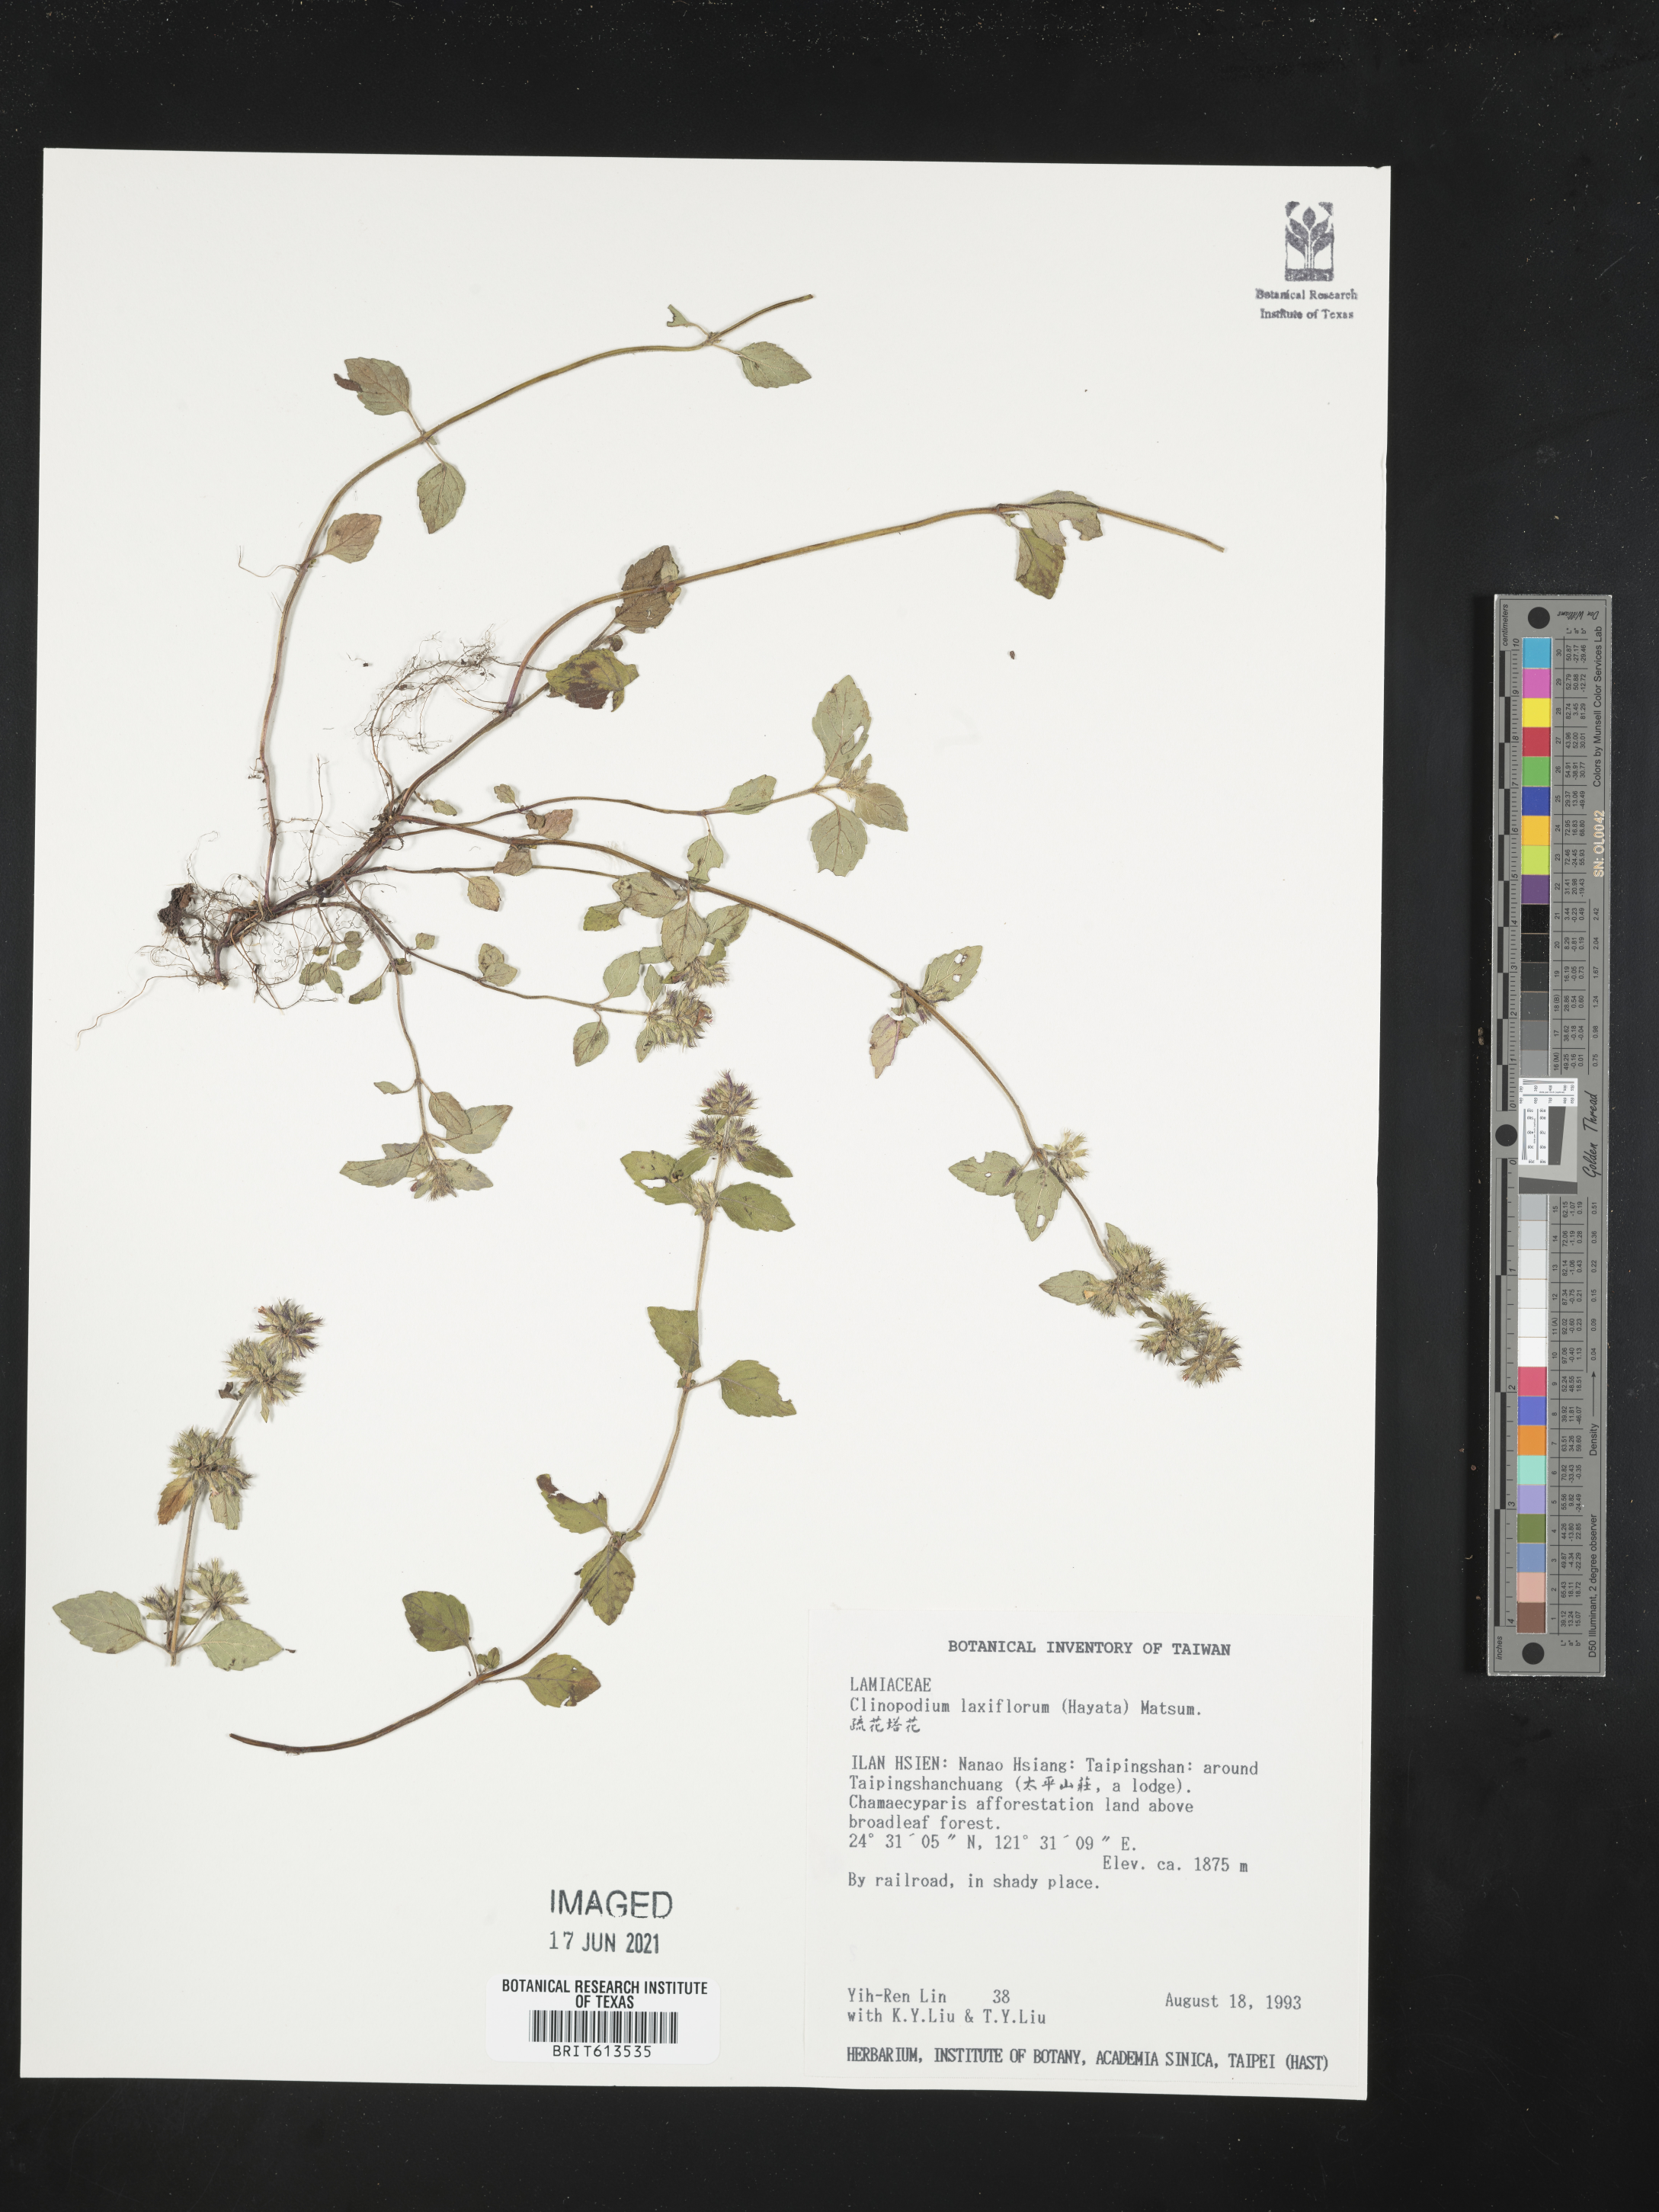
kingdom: Plantae
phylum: Tracheophyta
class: Magnoliopsida
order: Lamiales
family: Lamiaceae
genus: Clinopodium
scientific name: Clinopodium laxiflorum
